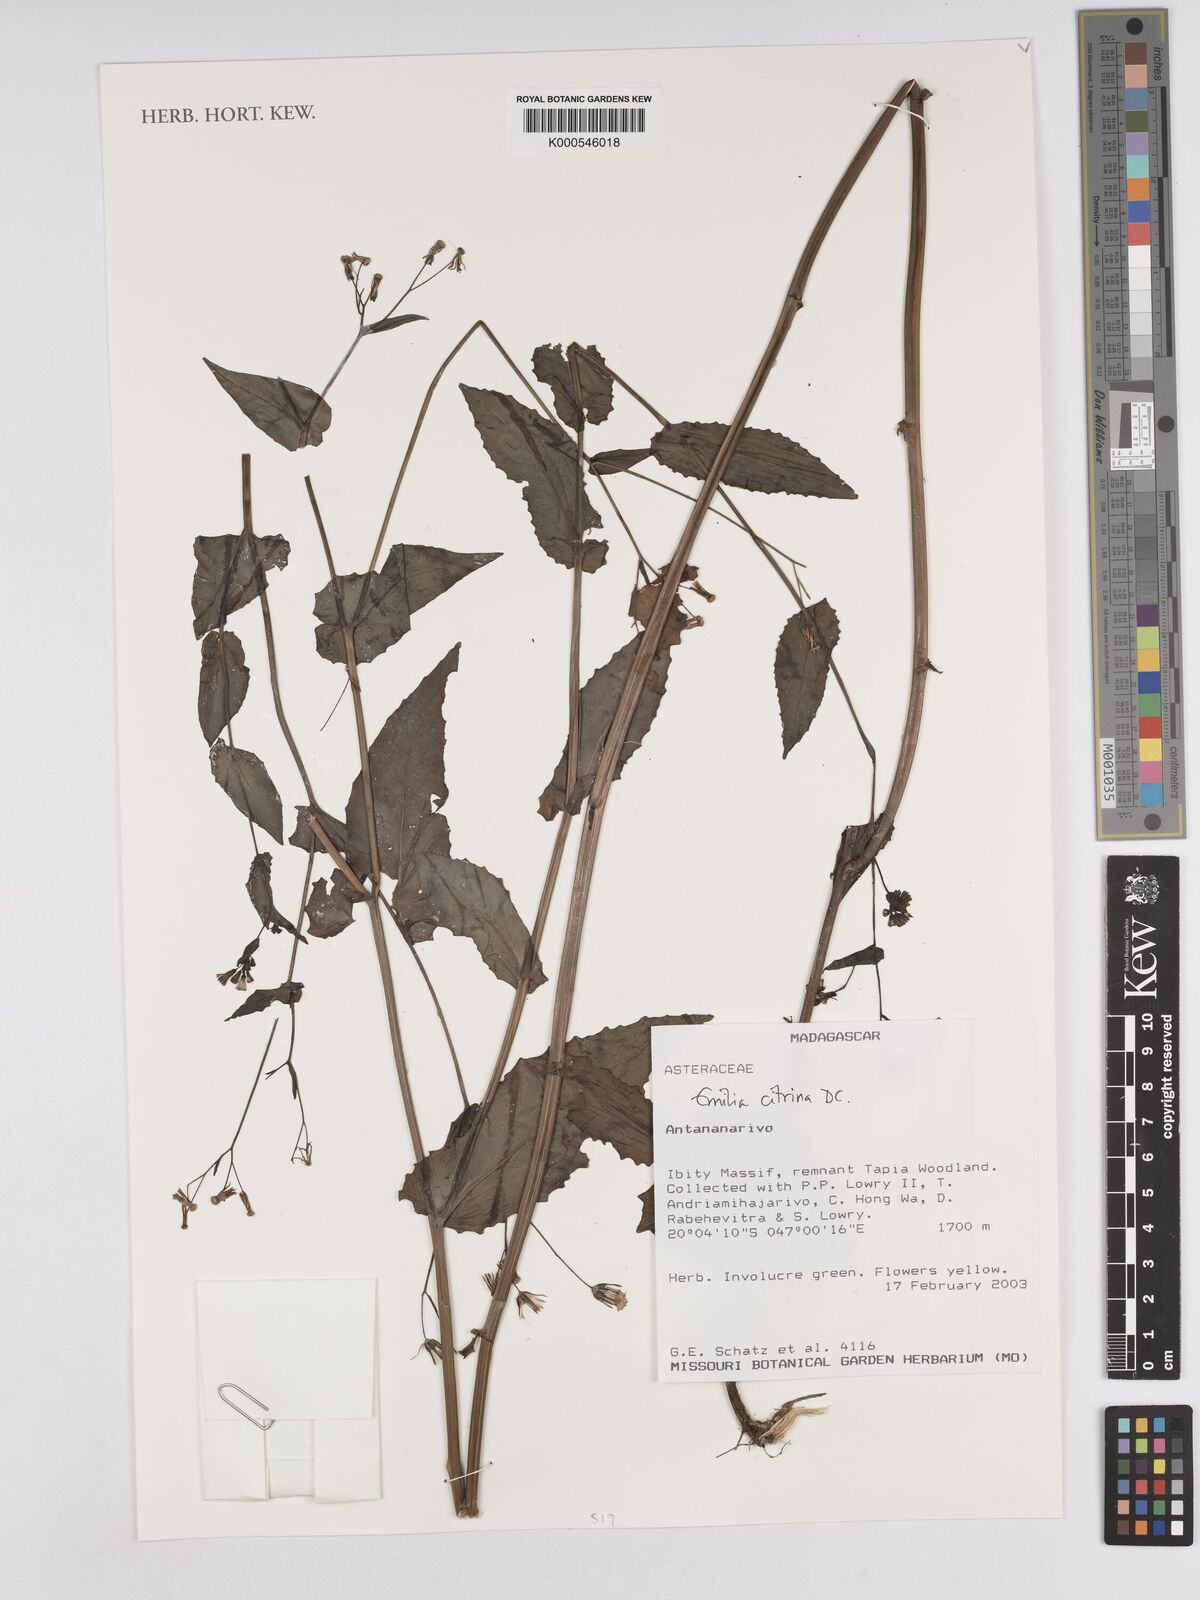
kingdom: Plantae
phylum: Tracheophyta
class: Magnoliopsida
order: Asterales
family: Asteraceae
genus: Emilia
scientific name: Emilia citrina
